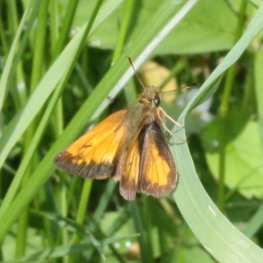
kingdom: Animalia
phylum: Arthropoda
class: Insecta
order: Lepidoptera
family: Hesperiidae
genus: Lon
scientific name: Lon hobomok
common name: Hobomok Skipper
